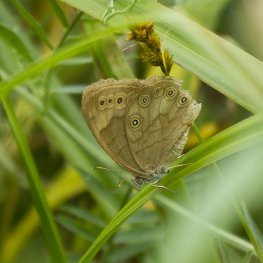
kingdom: Animalia
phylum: Arthropoda
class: Insecta
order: Lepidoptera
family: Nymphalidae
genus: Lethe
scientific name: Lethe eurydice
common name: Eyed Brown
